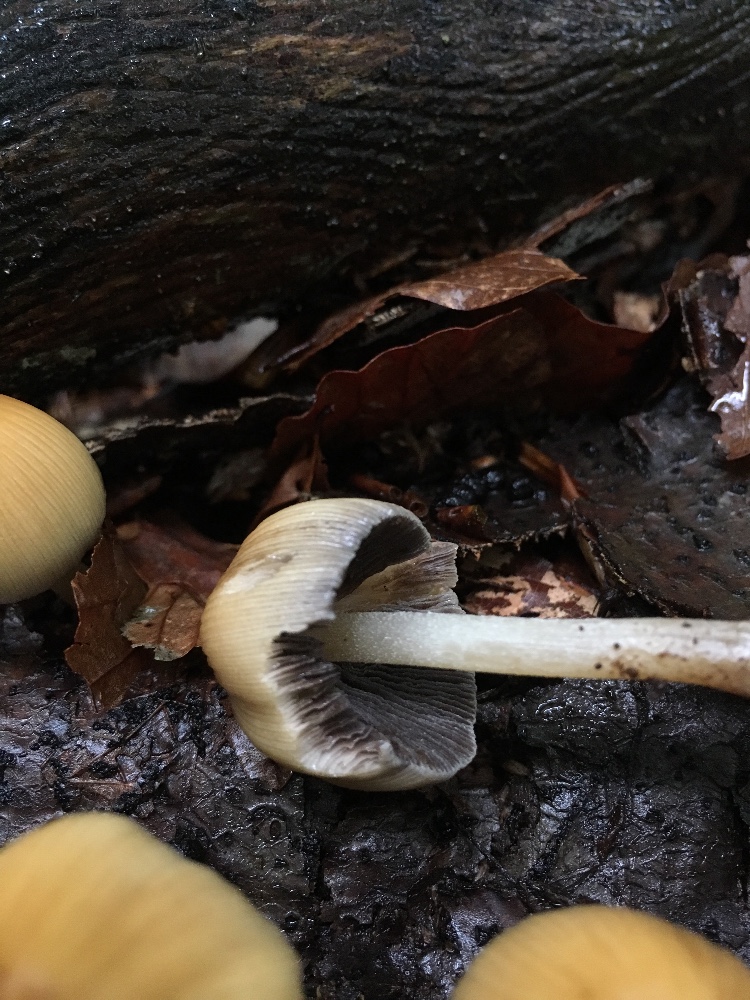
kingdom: Fungi
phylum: Basidiomycota
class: Agaricomycetes
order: Agaricales
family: Psathyrellaceae
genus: Coprinellus
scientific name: Coprinellus micaceus
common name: glimmer-blækhat
